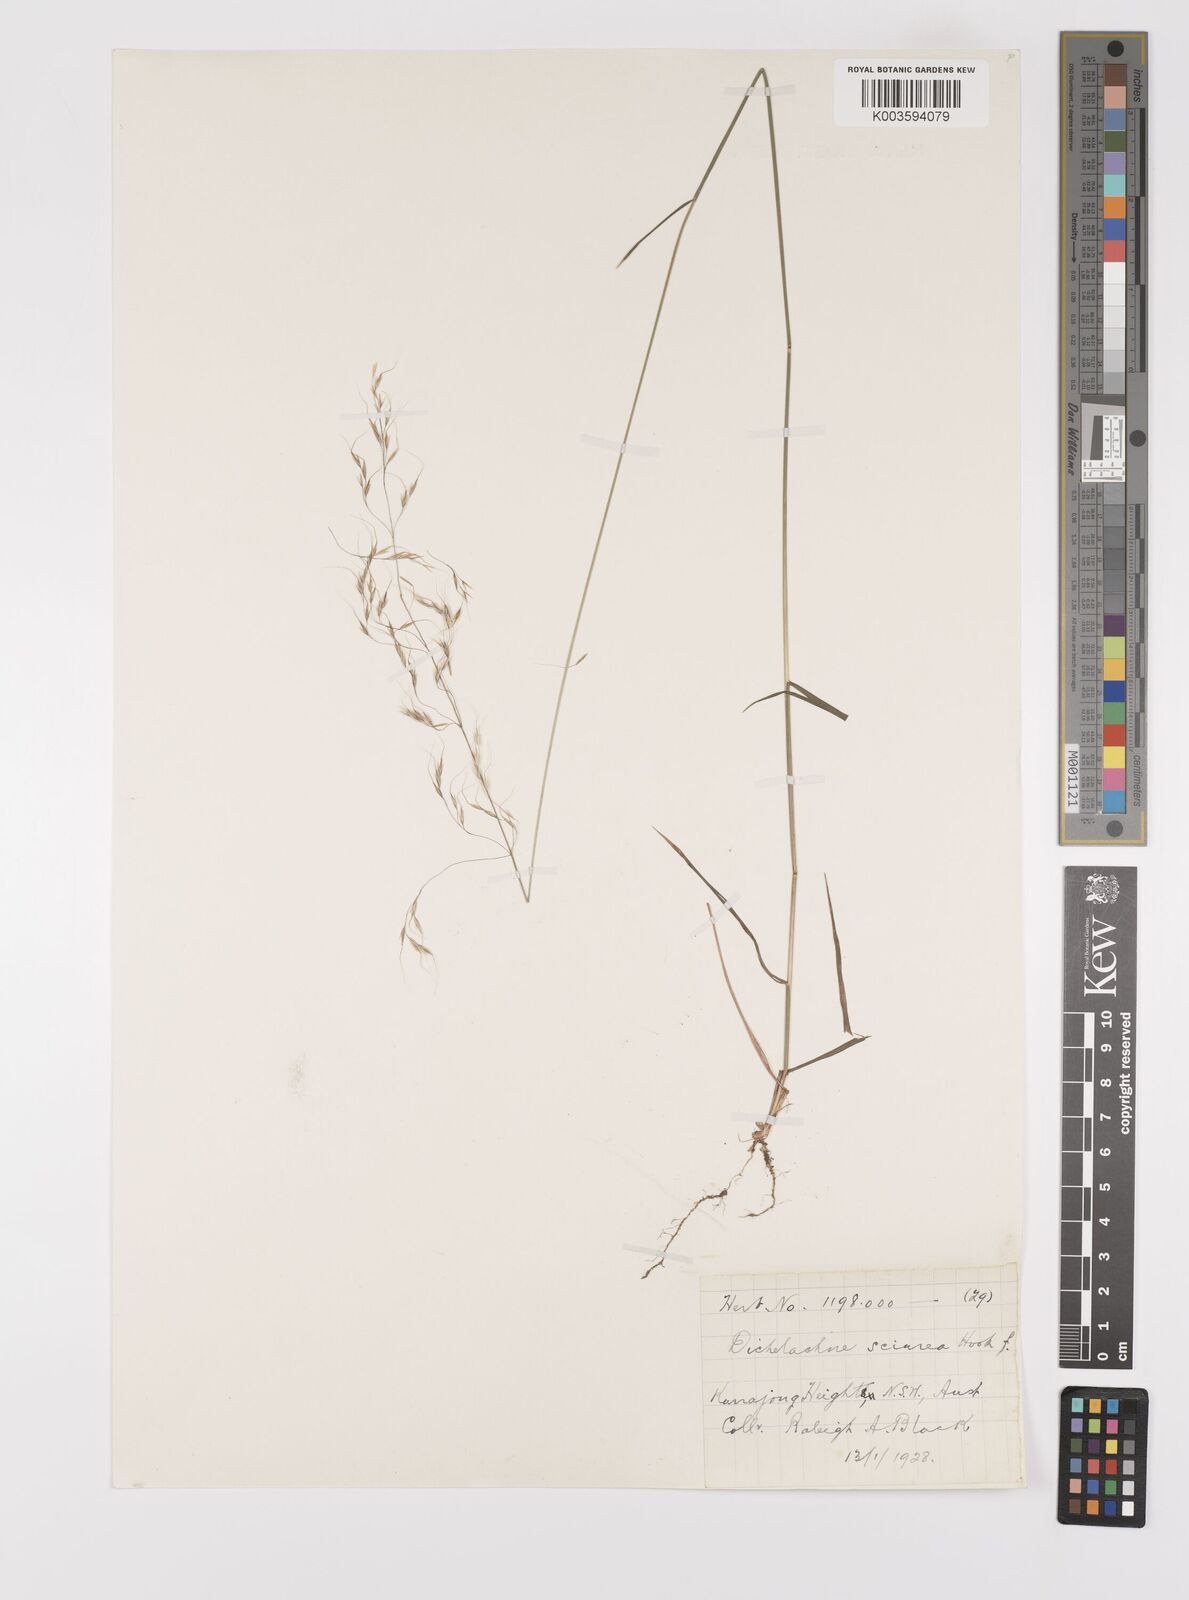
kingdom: Plantae
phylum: Tracheophyta
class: Liliopsida
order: Poales
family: Poaceae
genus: Dichelachne
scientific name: Dichelachne rara
